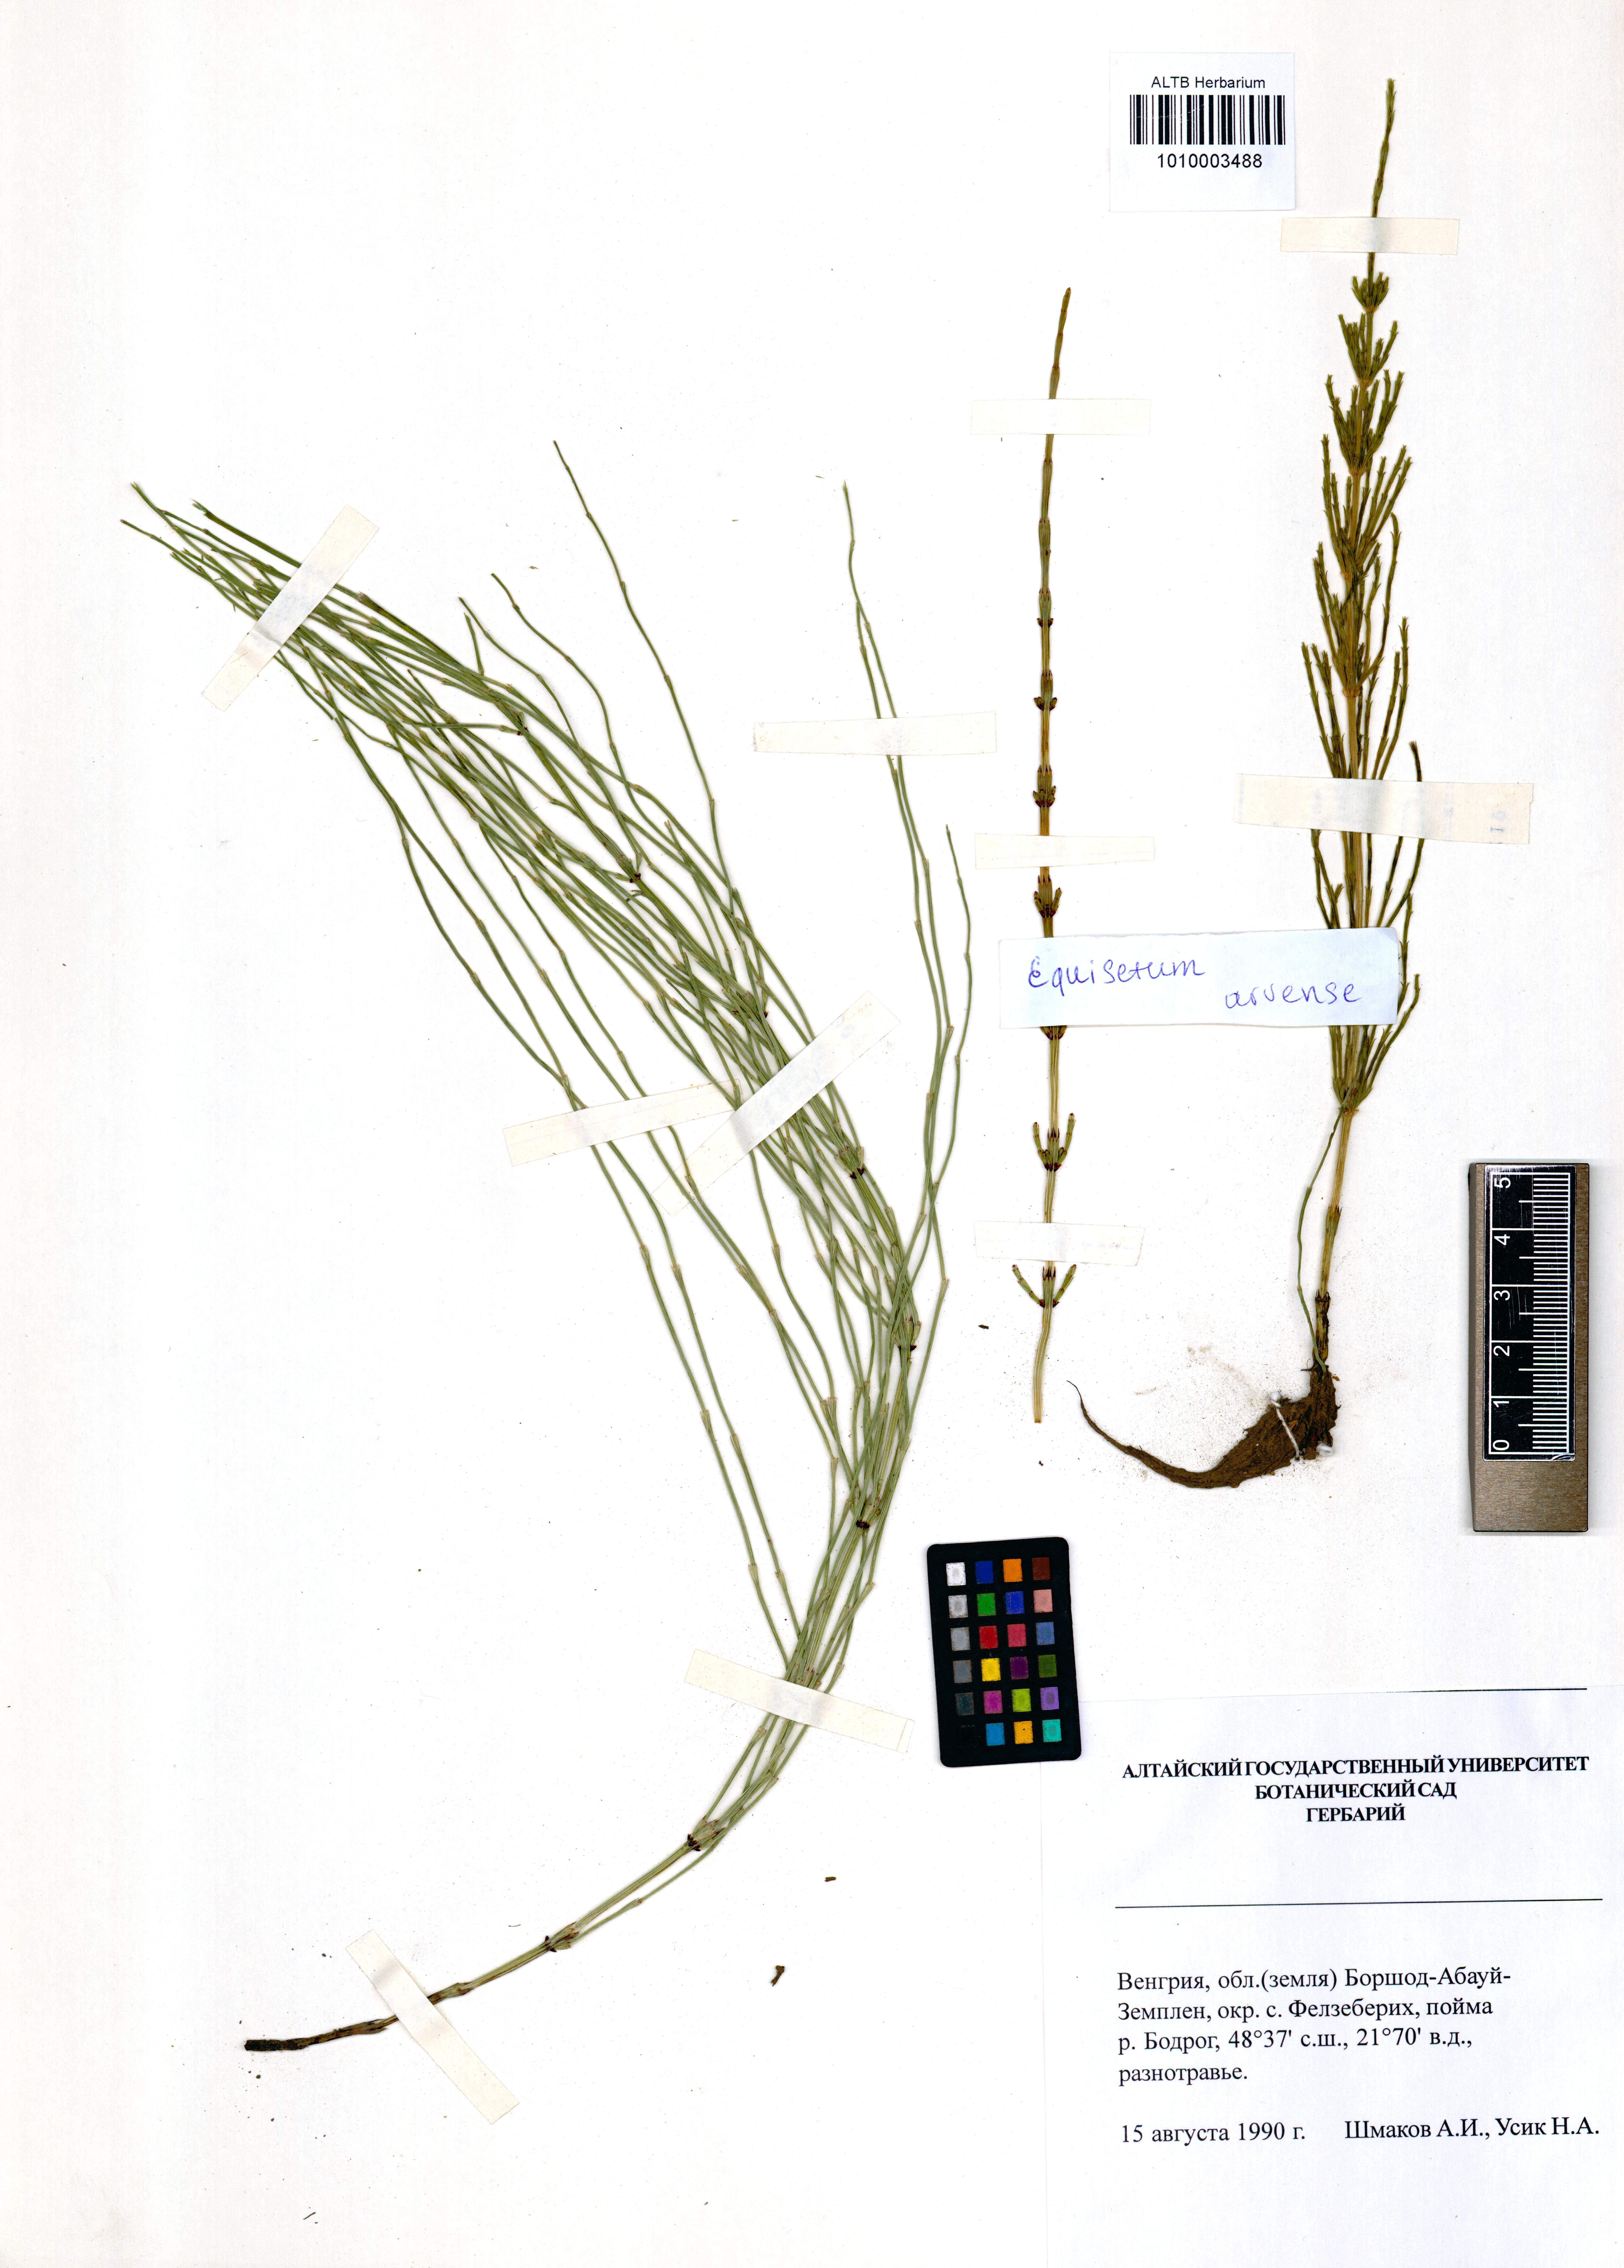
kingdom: Plantae
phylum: Tracheophyta
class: Polypodiopsida
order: Equisetales
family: Equisetaceae
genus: Equisetum
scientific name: Equisetum arvense
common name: Field horsetail
